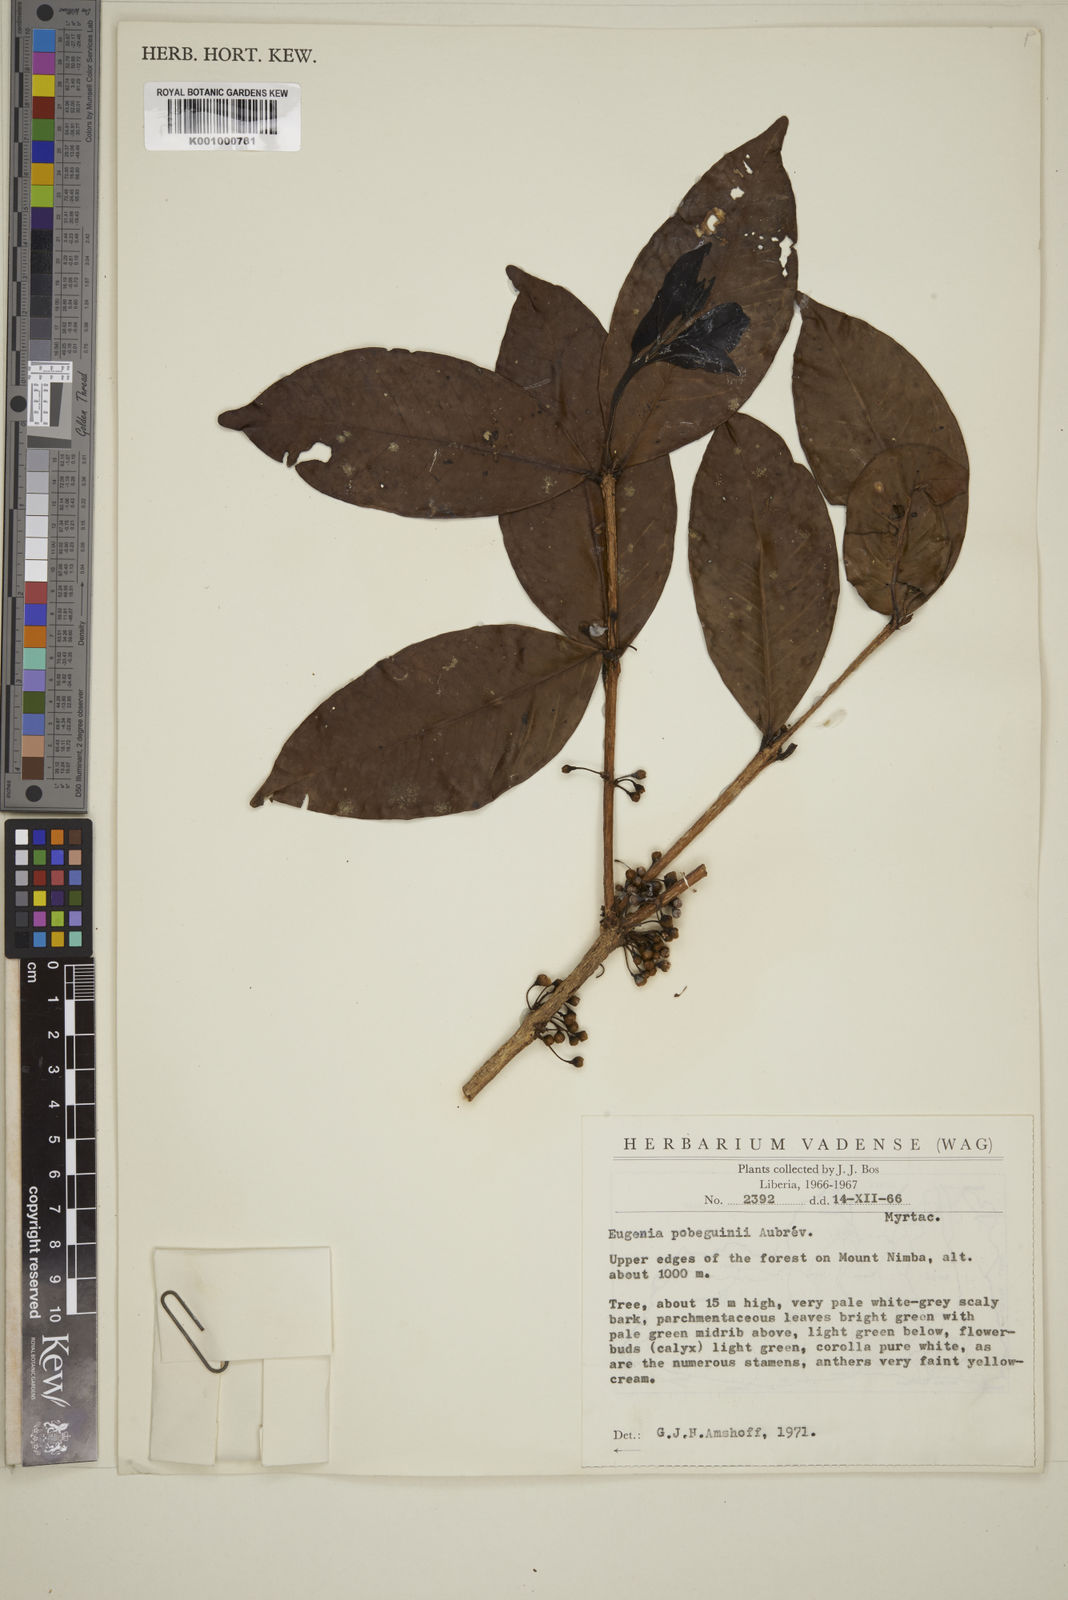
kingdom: Plantae
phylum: Tracheophyta
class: Magnoliopsida
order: Myrtales
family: Myrtaceae
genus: Eugenia
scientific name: Eugenia
